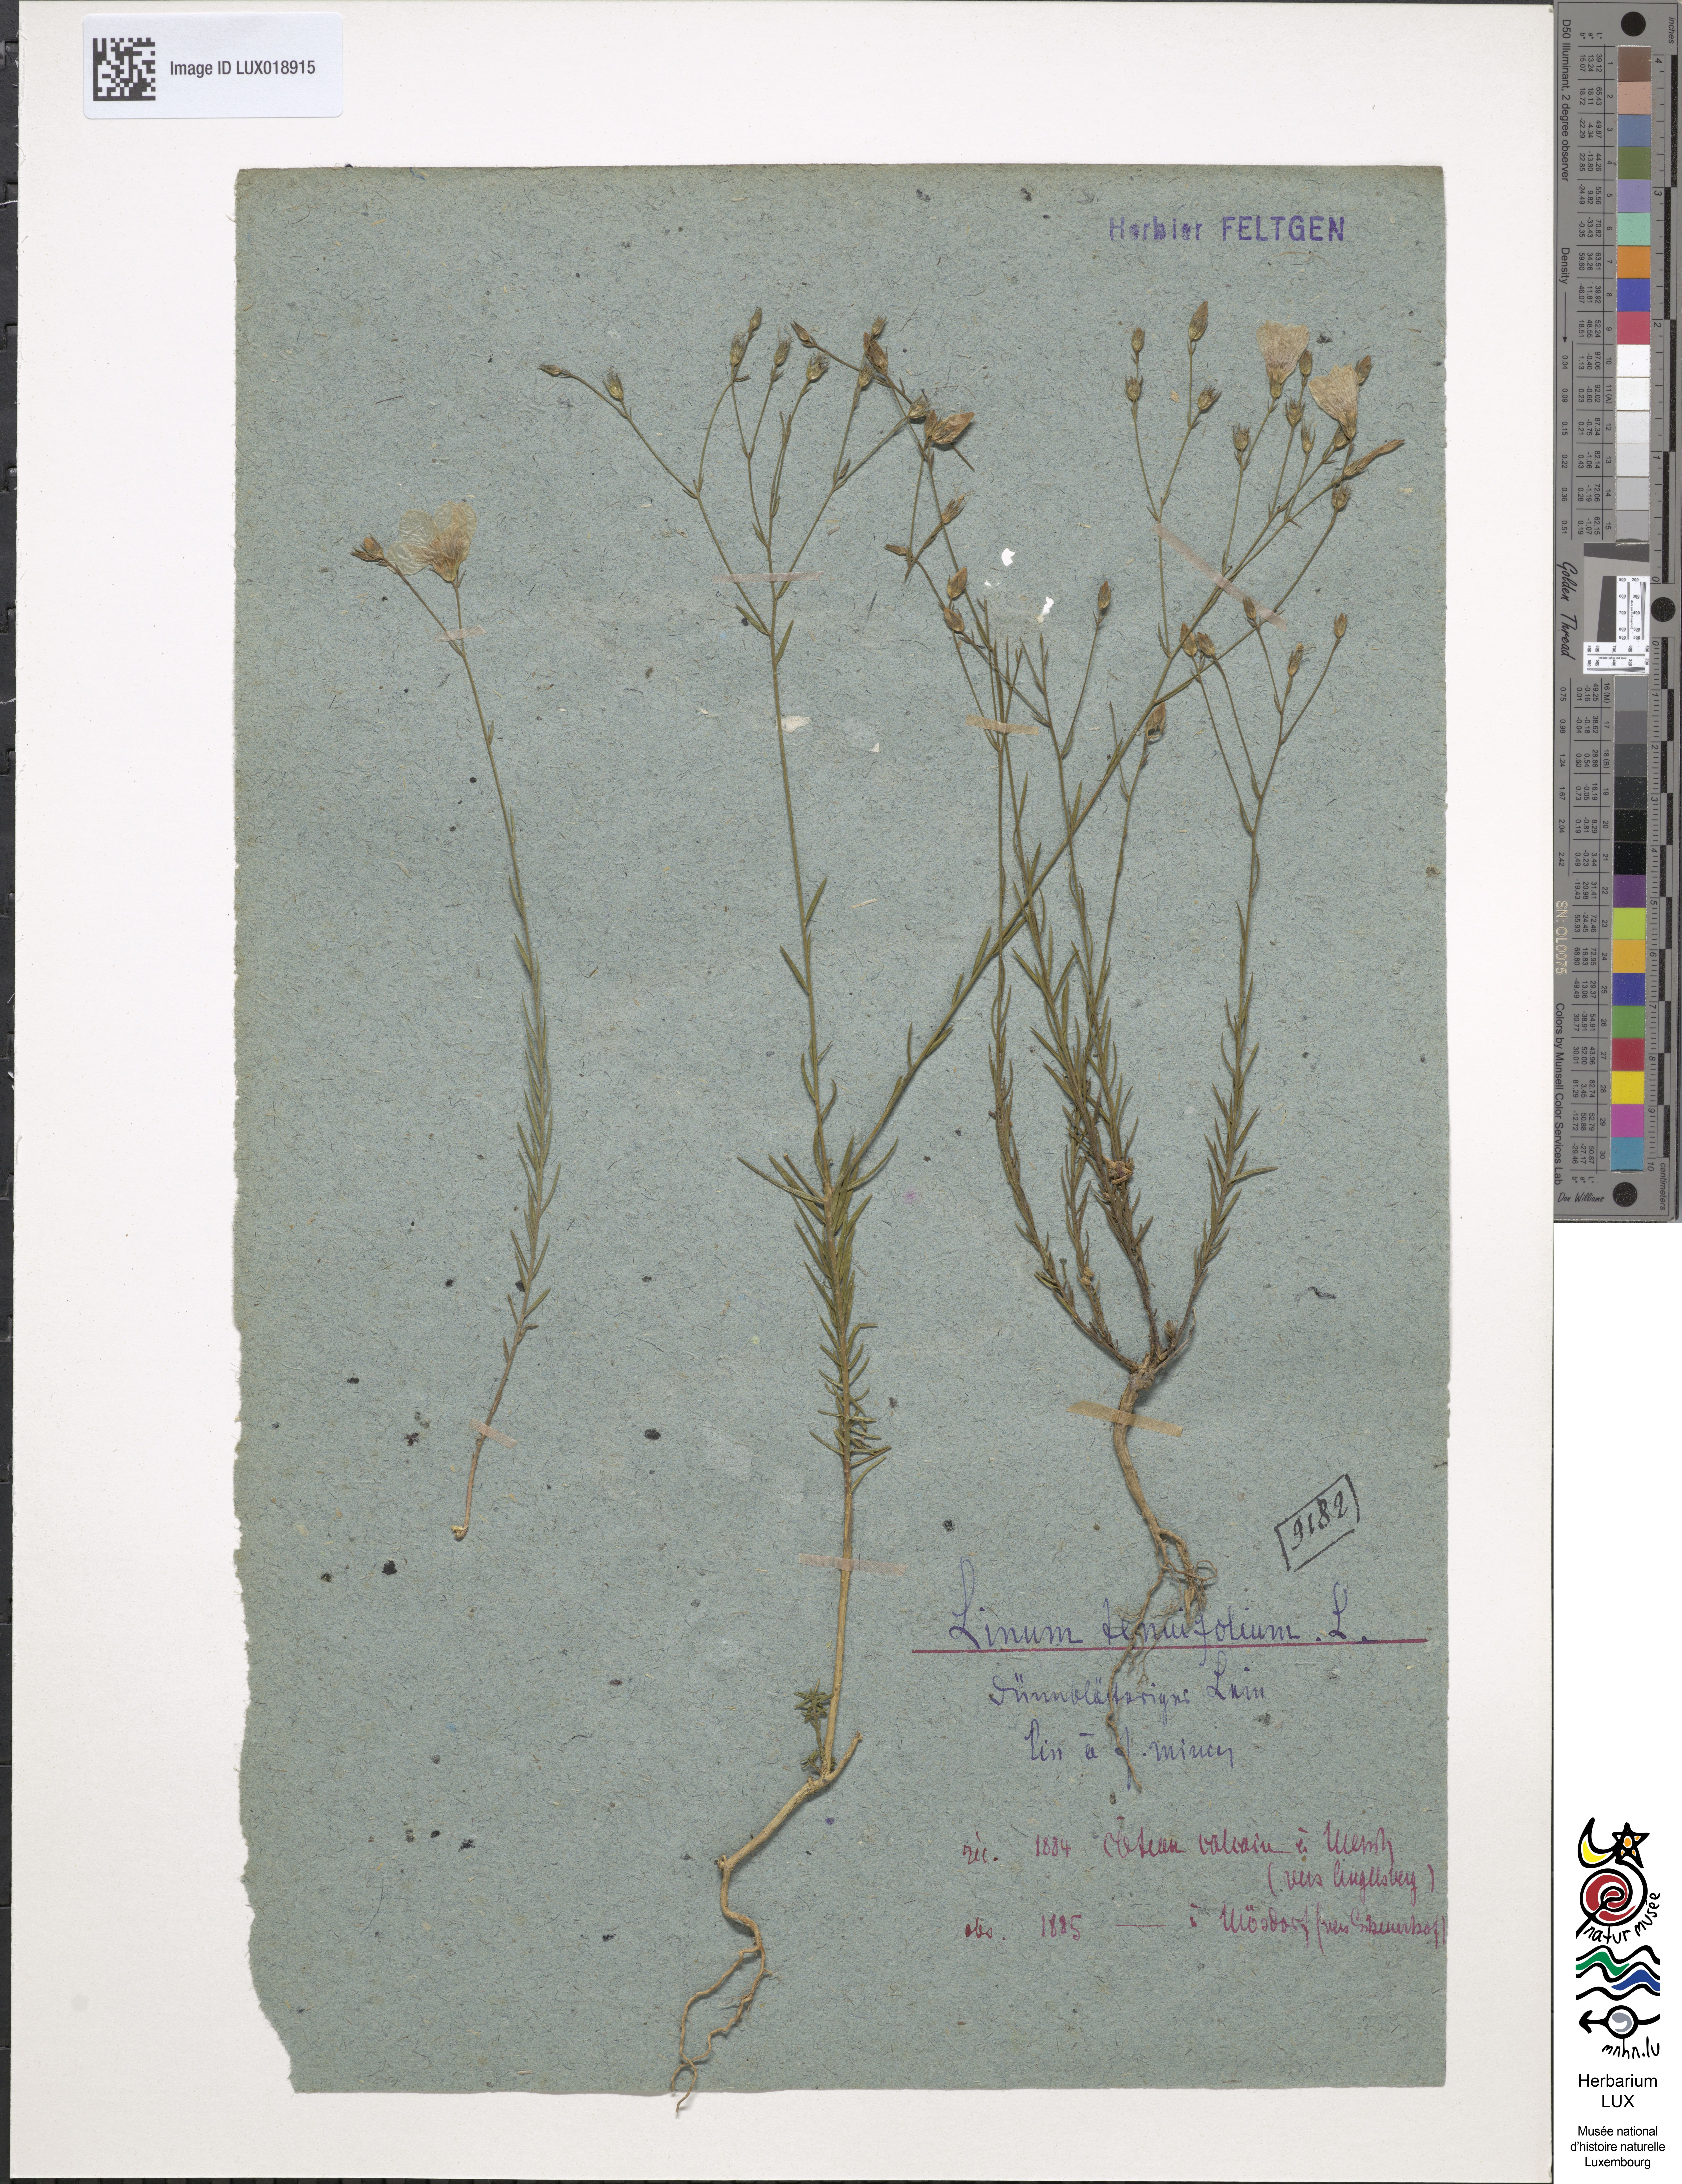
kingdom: Plantae
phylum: Tracheophyta
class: Magnoliopsida
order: Malpighiales
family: Linaceae
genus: Linum
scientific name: Linum tenuifolium
